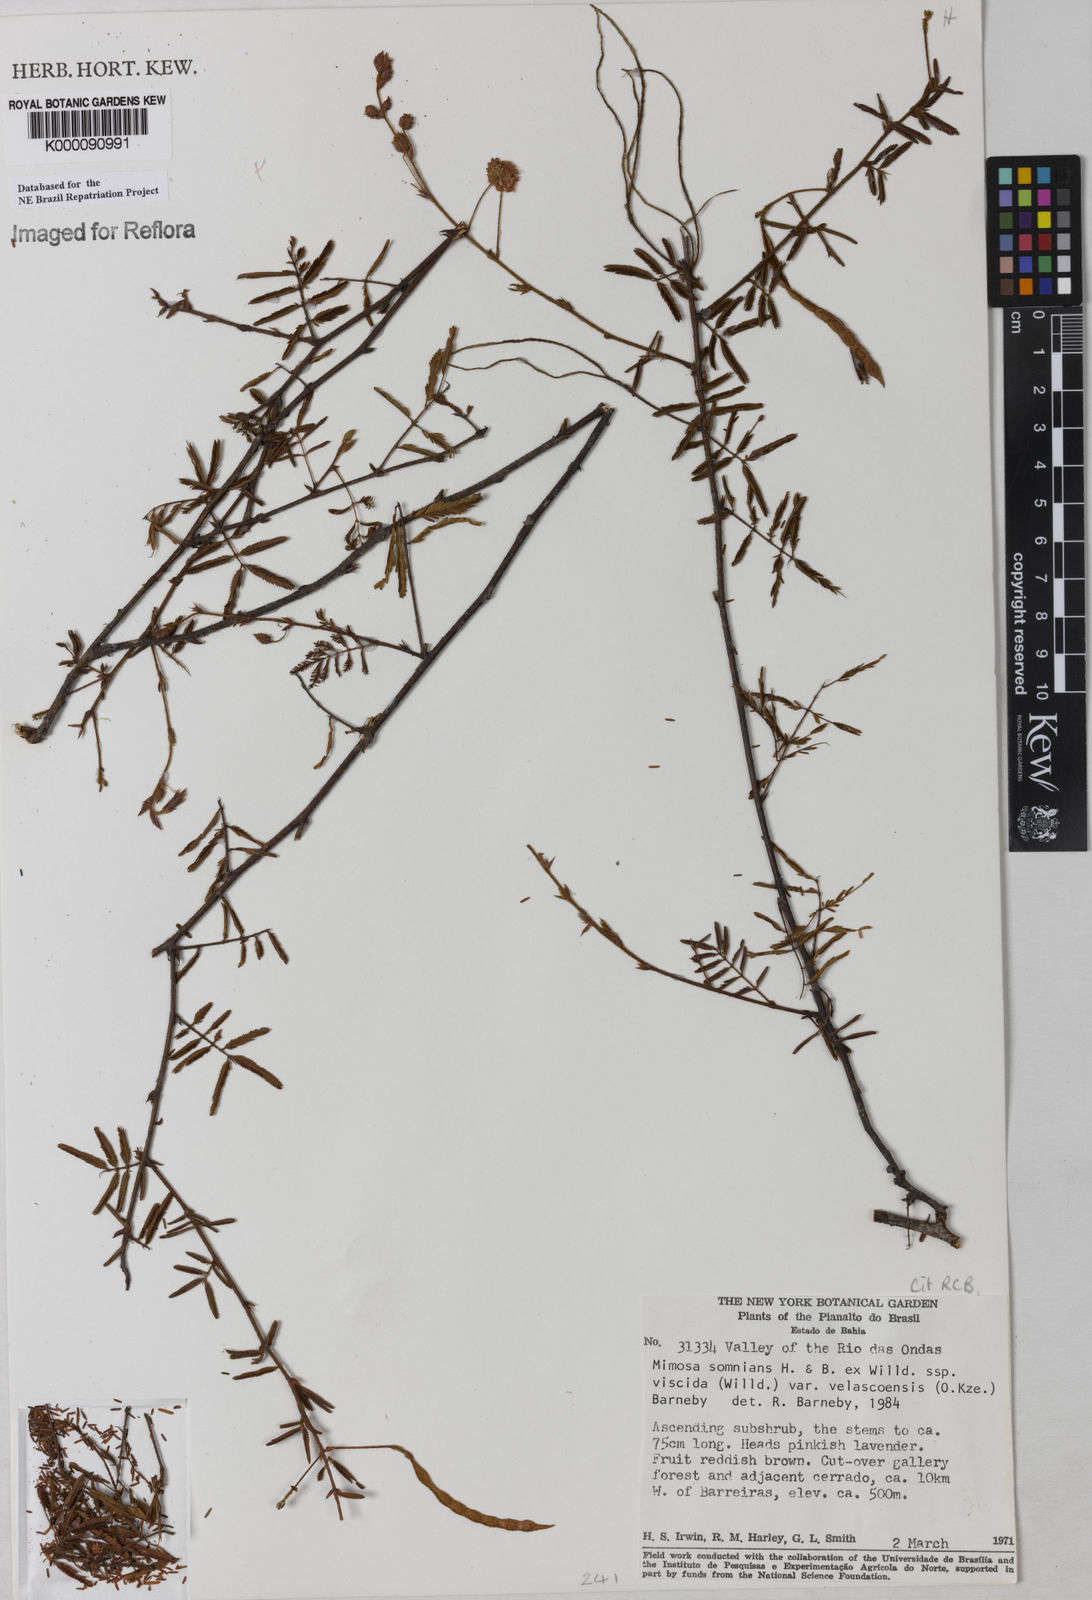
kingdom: Plantae
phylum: Tracheophyta
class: Magnoliopsida
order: Fabales
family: Fabaceae
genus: Mimosa
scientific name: Mimosa somnians
